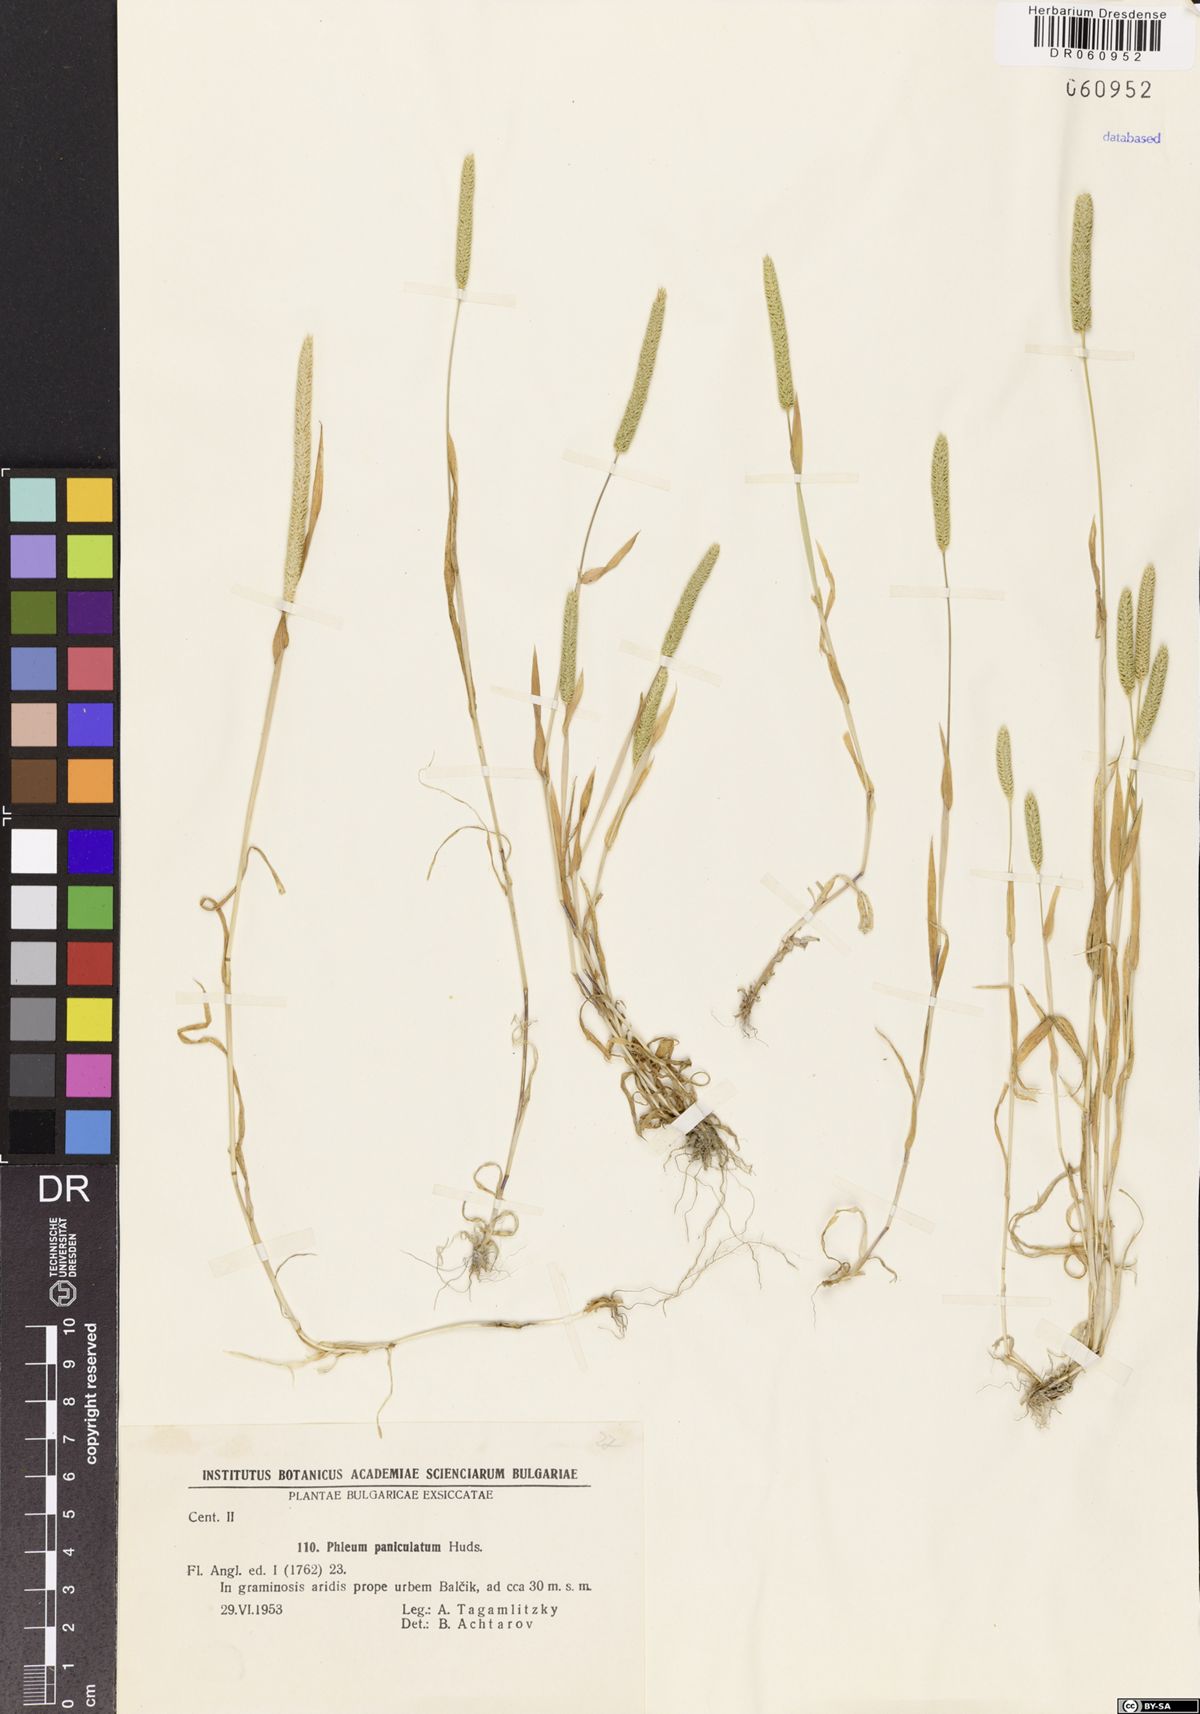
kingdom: Plantae
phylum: Tracheophyta
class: Liliopsida
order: Poales
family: Poaceae
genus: Phleum
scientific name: Phleum paniculatum
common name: British timothy
